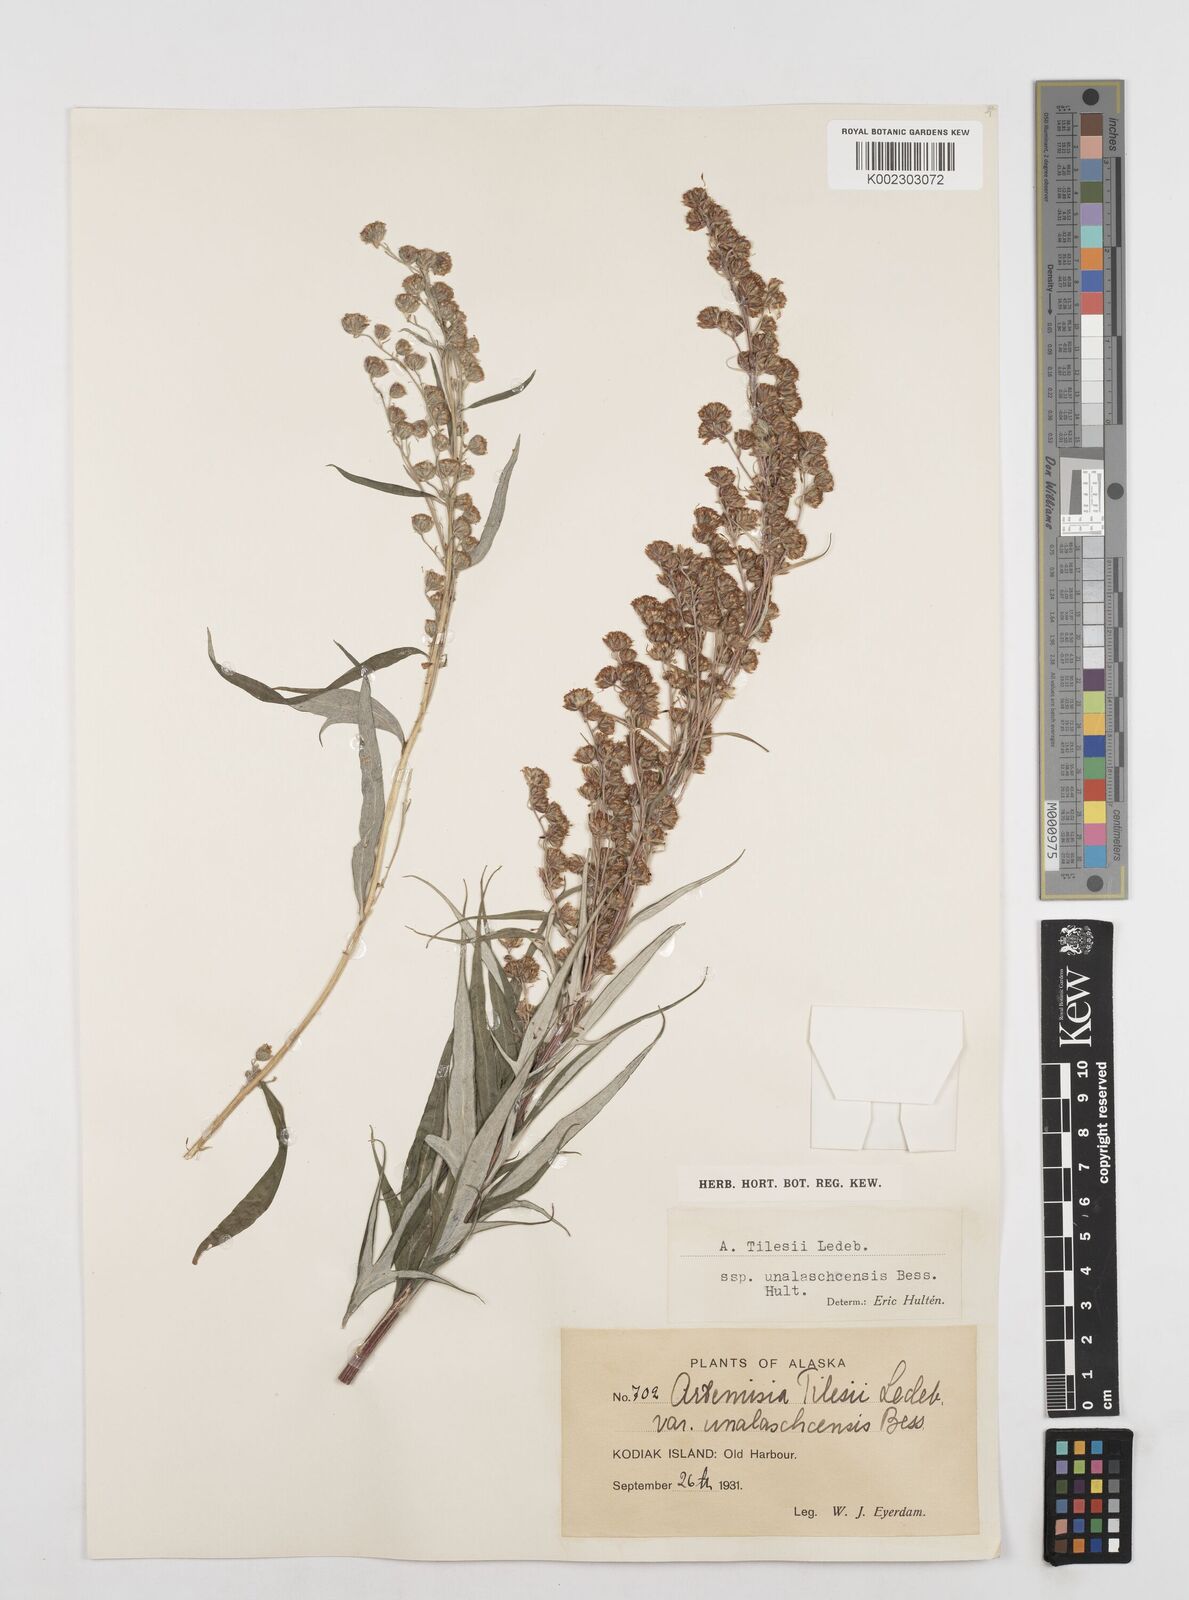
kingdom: Plantae
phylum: Tracheophyta
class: Magnoliopsida
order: Asterales
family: Asteraceae
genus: Artemisia
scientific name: Artemisia tilesii
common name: Aleutian mugwort
